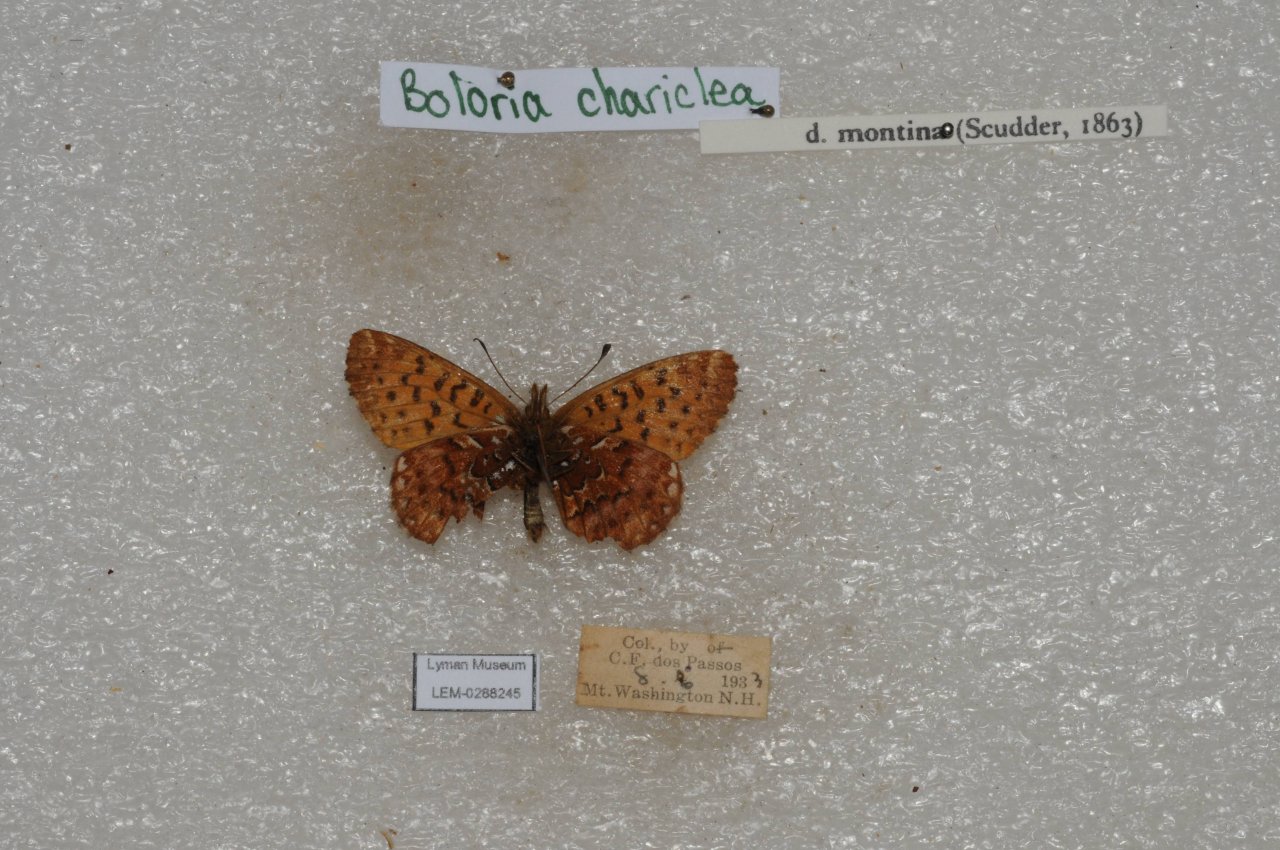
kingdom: Animalia
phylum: Arthropoda
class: Insecta
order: Lepidoptera
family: Nymphalidae
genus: Boloria
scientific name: Boloria chariclea
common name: Arctic Fritillary
